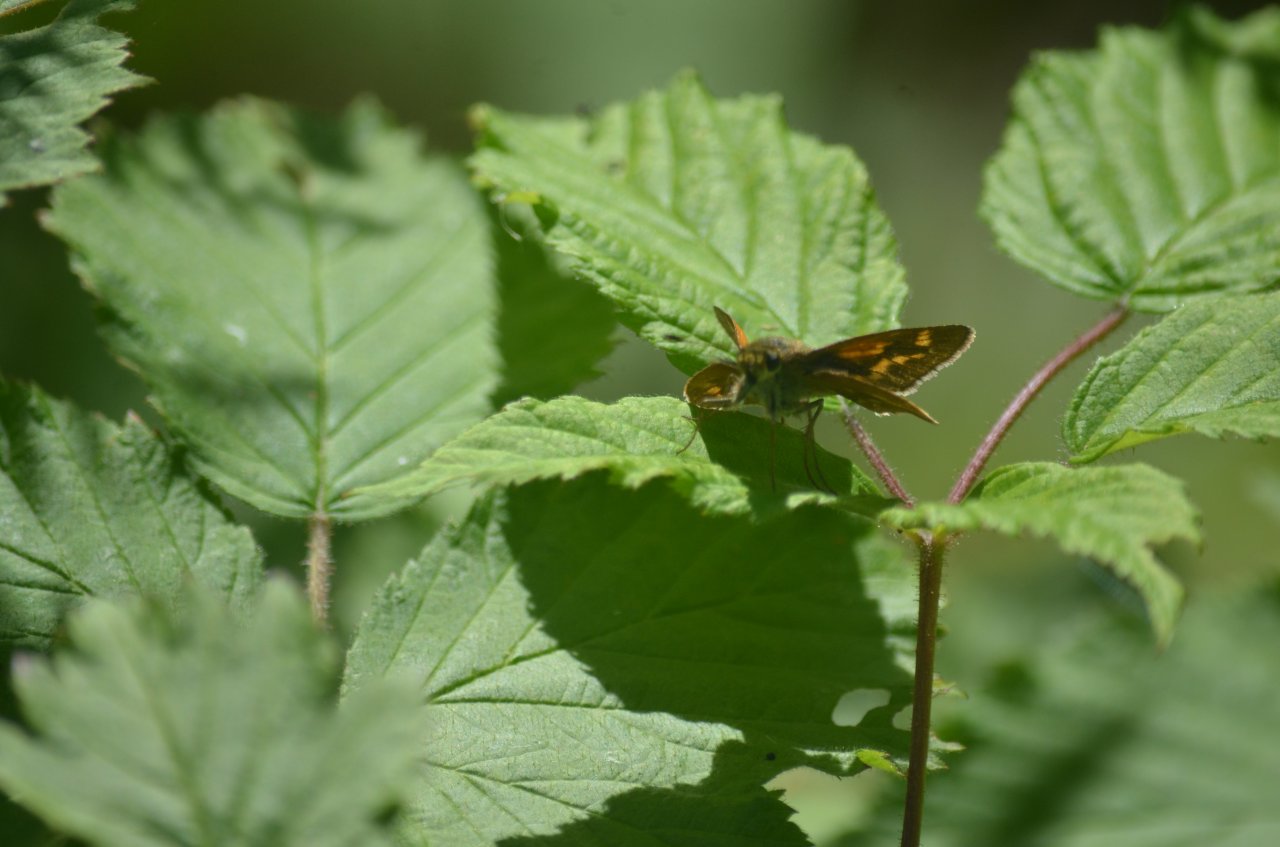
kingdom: Animalia
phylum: Arthropoda
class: Insecta
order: Lepidoptera
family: Hesperiidae
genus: Polites
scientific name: Polites
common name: Long Dash Skipper
